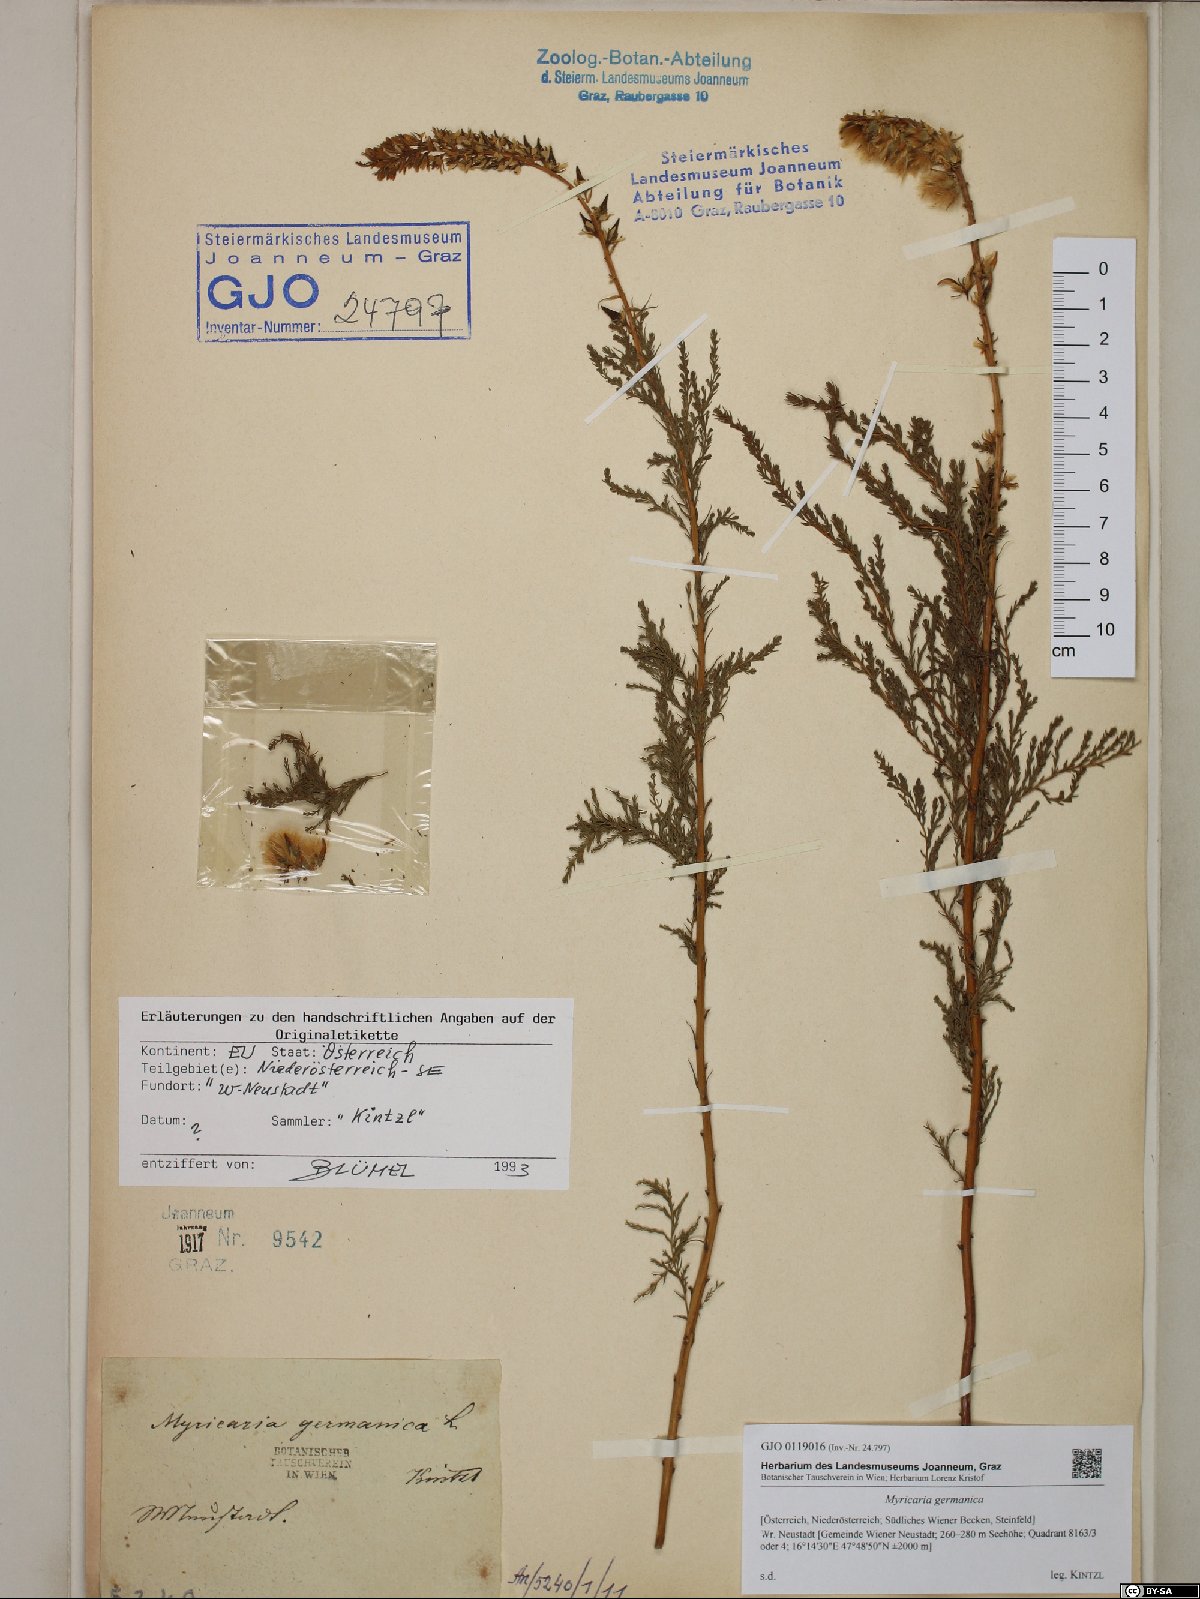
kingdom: Plantae
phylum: Tracheophyta
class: Magnoliopsida
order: Caryophyllales
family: Tamaricaceae
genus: Myricaria
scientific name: Myricaria germanica
